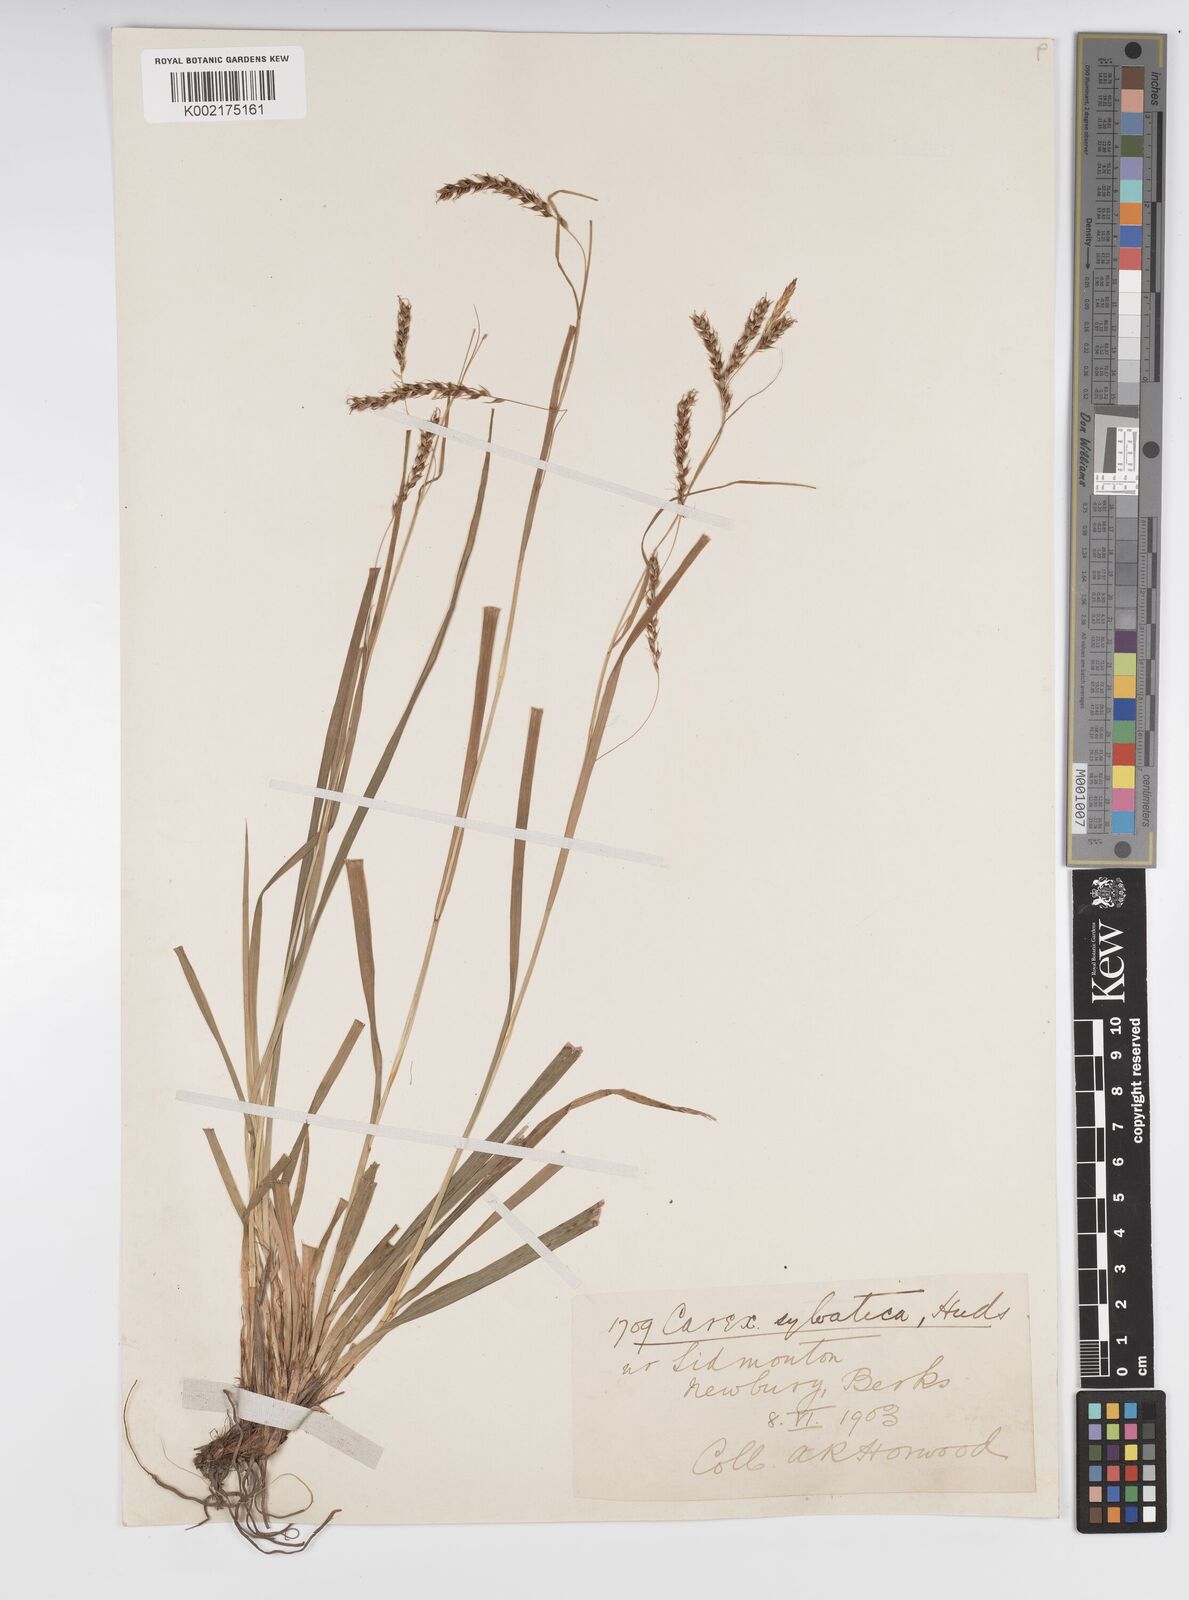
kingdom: Plantae
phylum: Tracheophyta
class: Liliopsida
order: Poales
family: Cyperaceae
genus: Carex
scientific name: Carex sylvatica
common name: Wood-sedge
